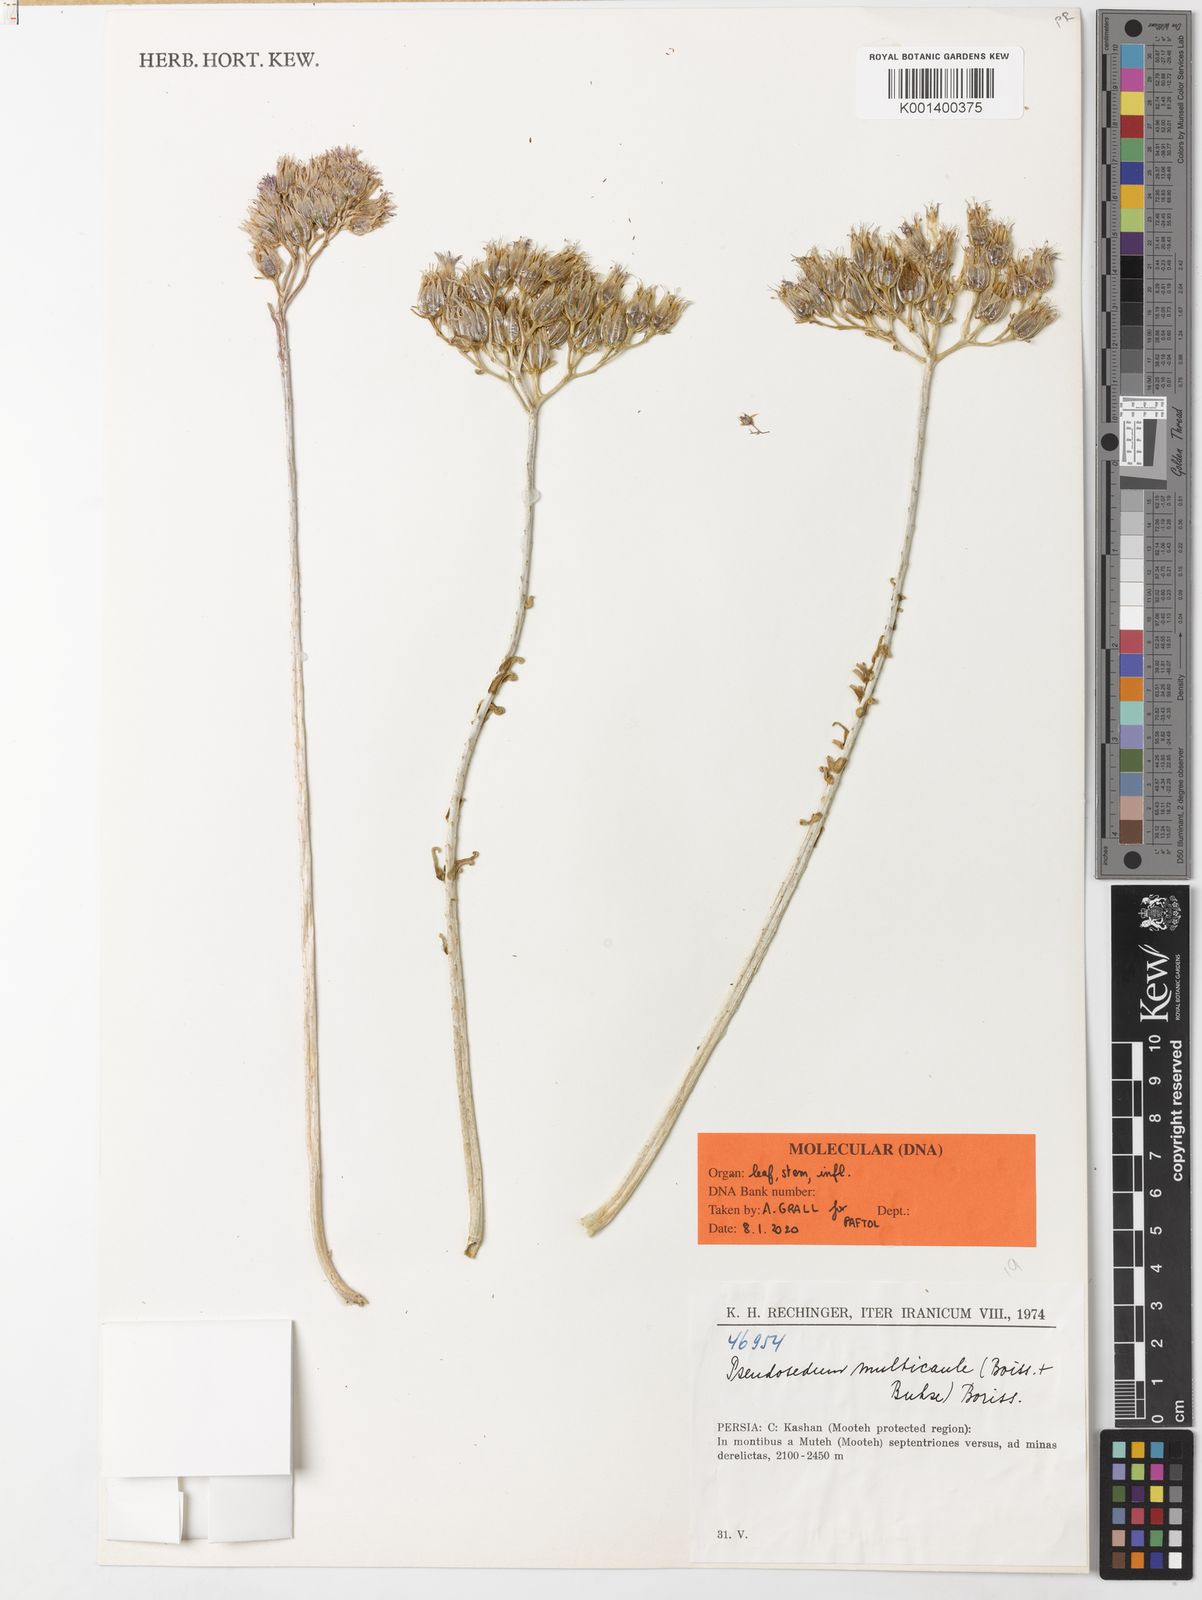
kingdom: Plantae
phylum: Tracheophyta
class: Magnoliopsida
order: Saxifragales
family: Crassulaceae
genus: Pseudosedum
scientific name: Pseudosedum multicaule
